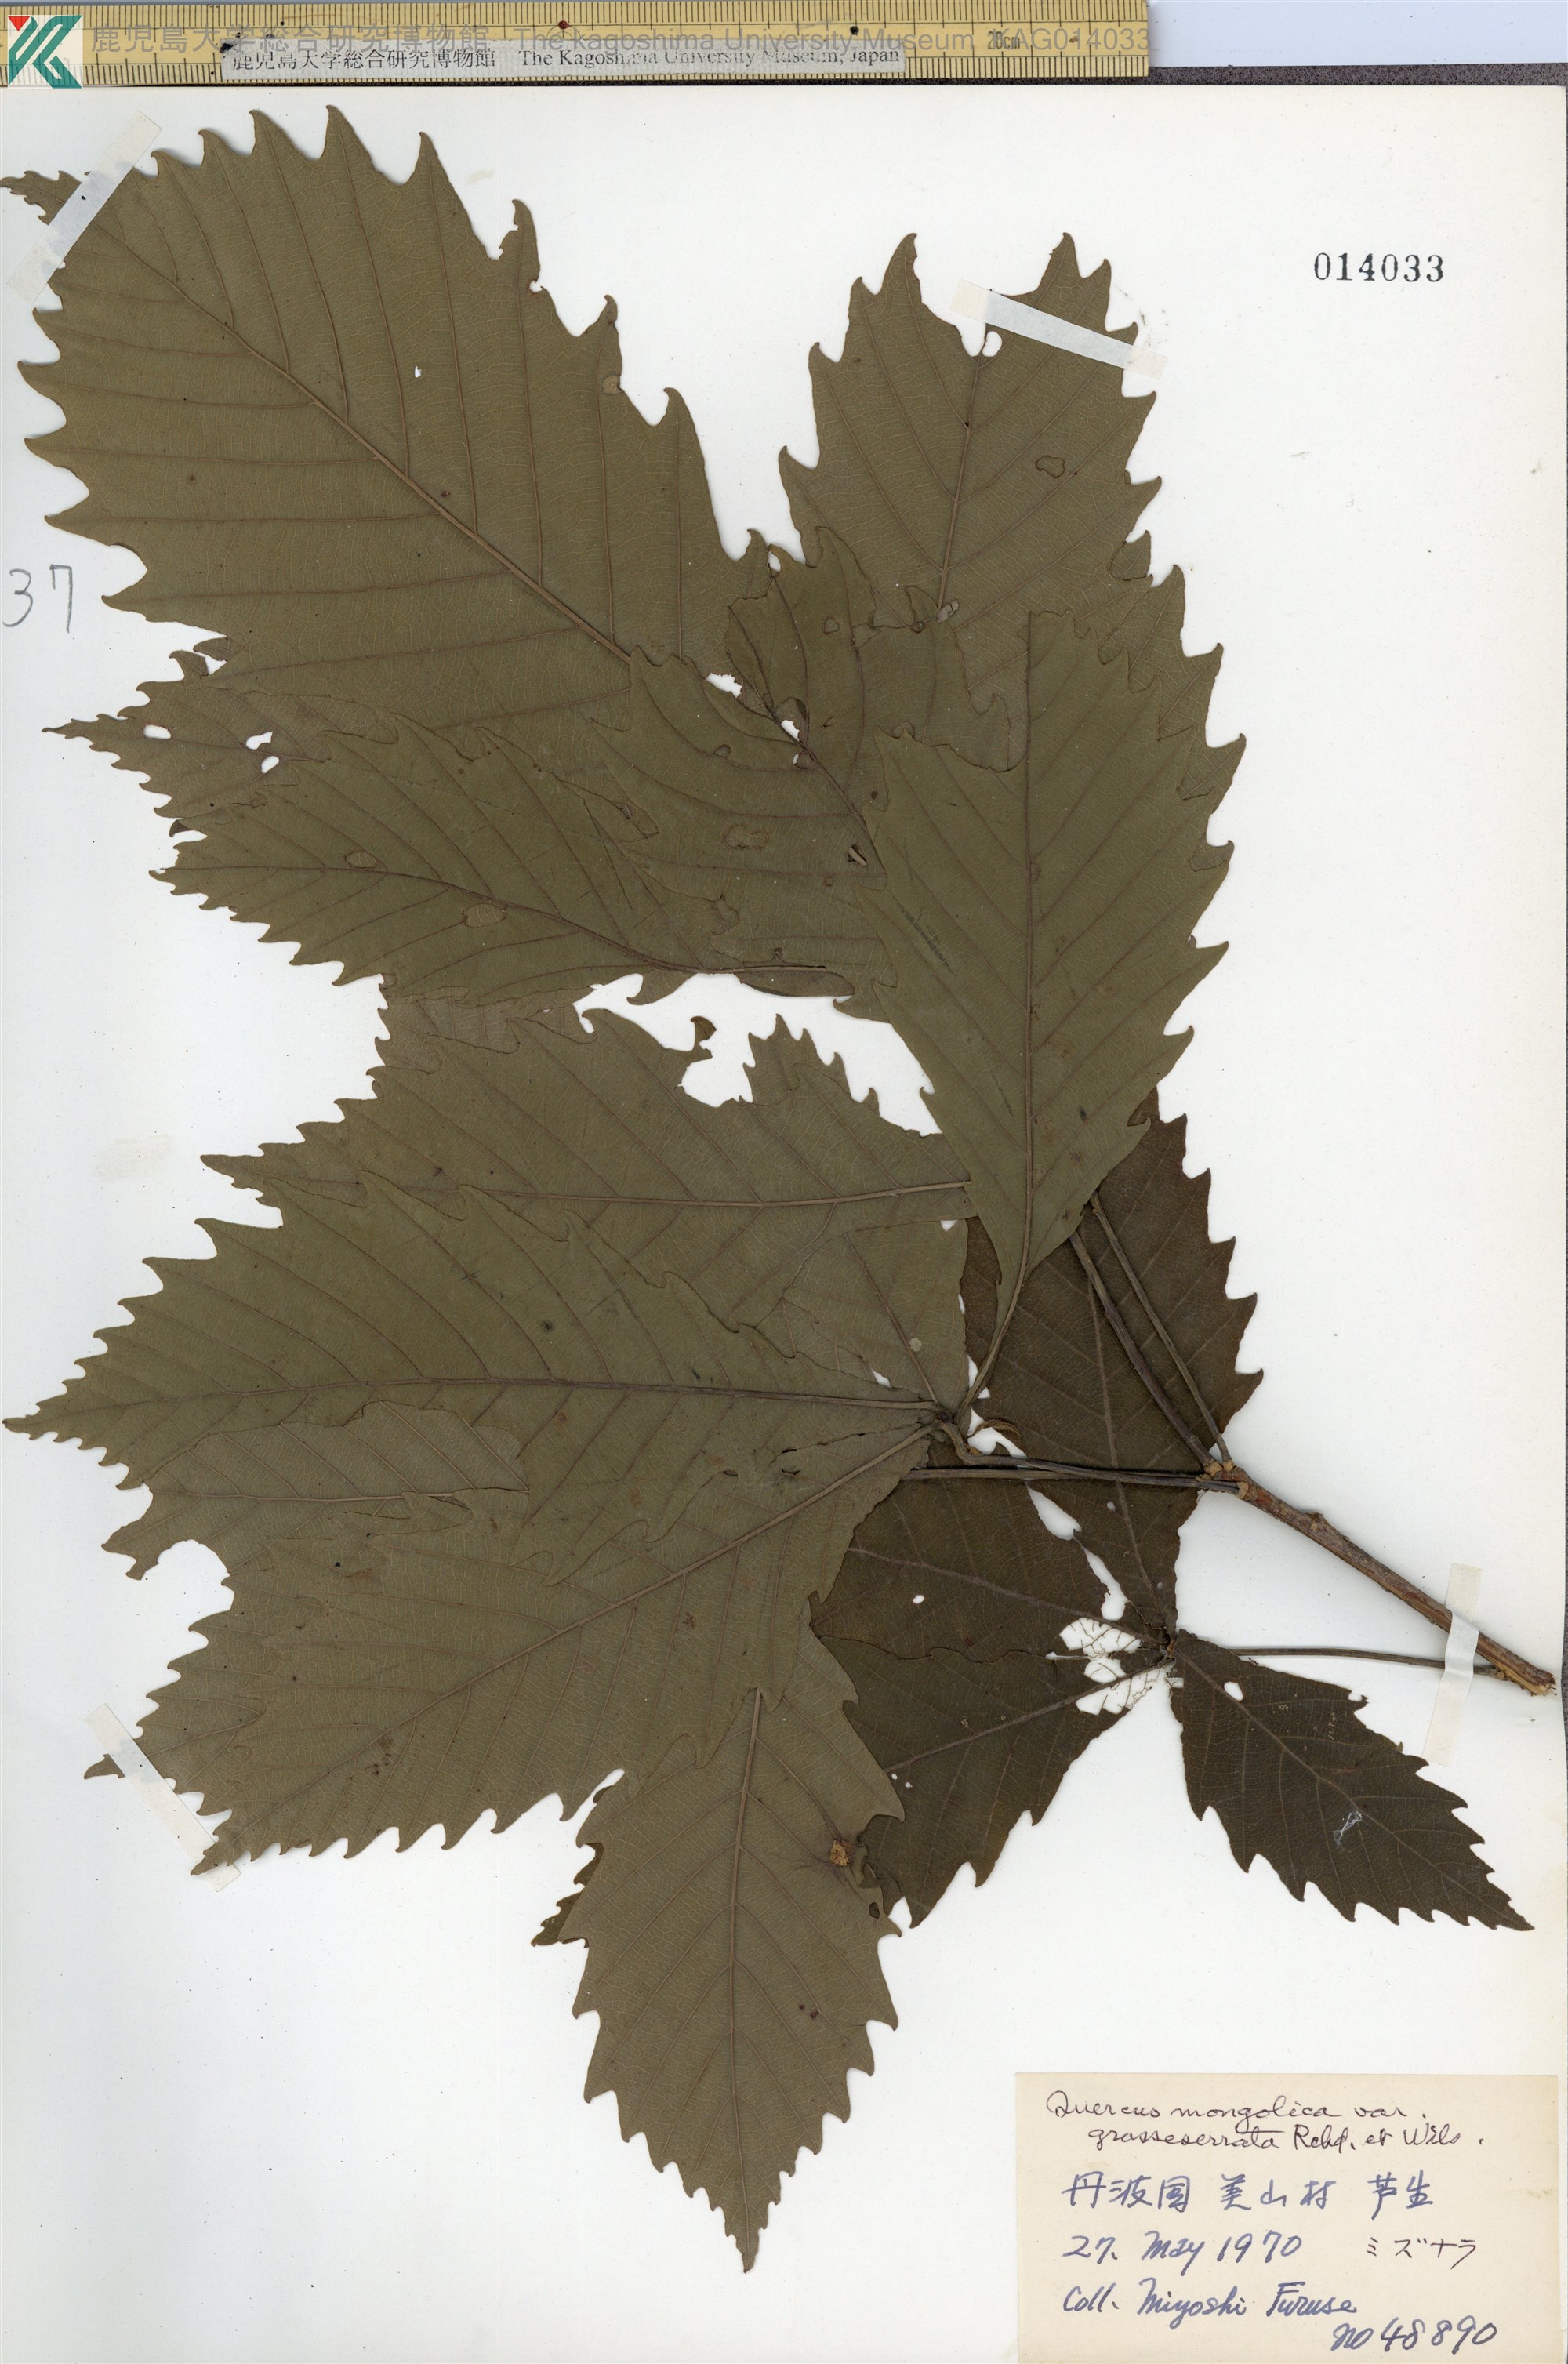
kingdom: Plantae
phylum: Tracheophyta
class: Magnoliopsida
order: Fagales
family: Fagaceae
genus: Quercus
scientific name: Quercus crispula
